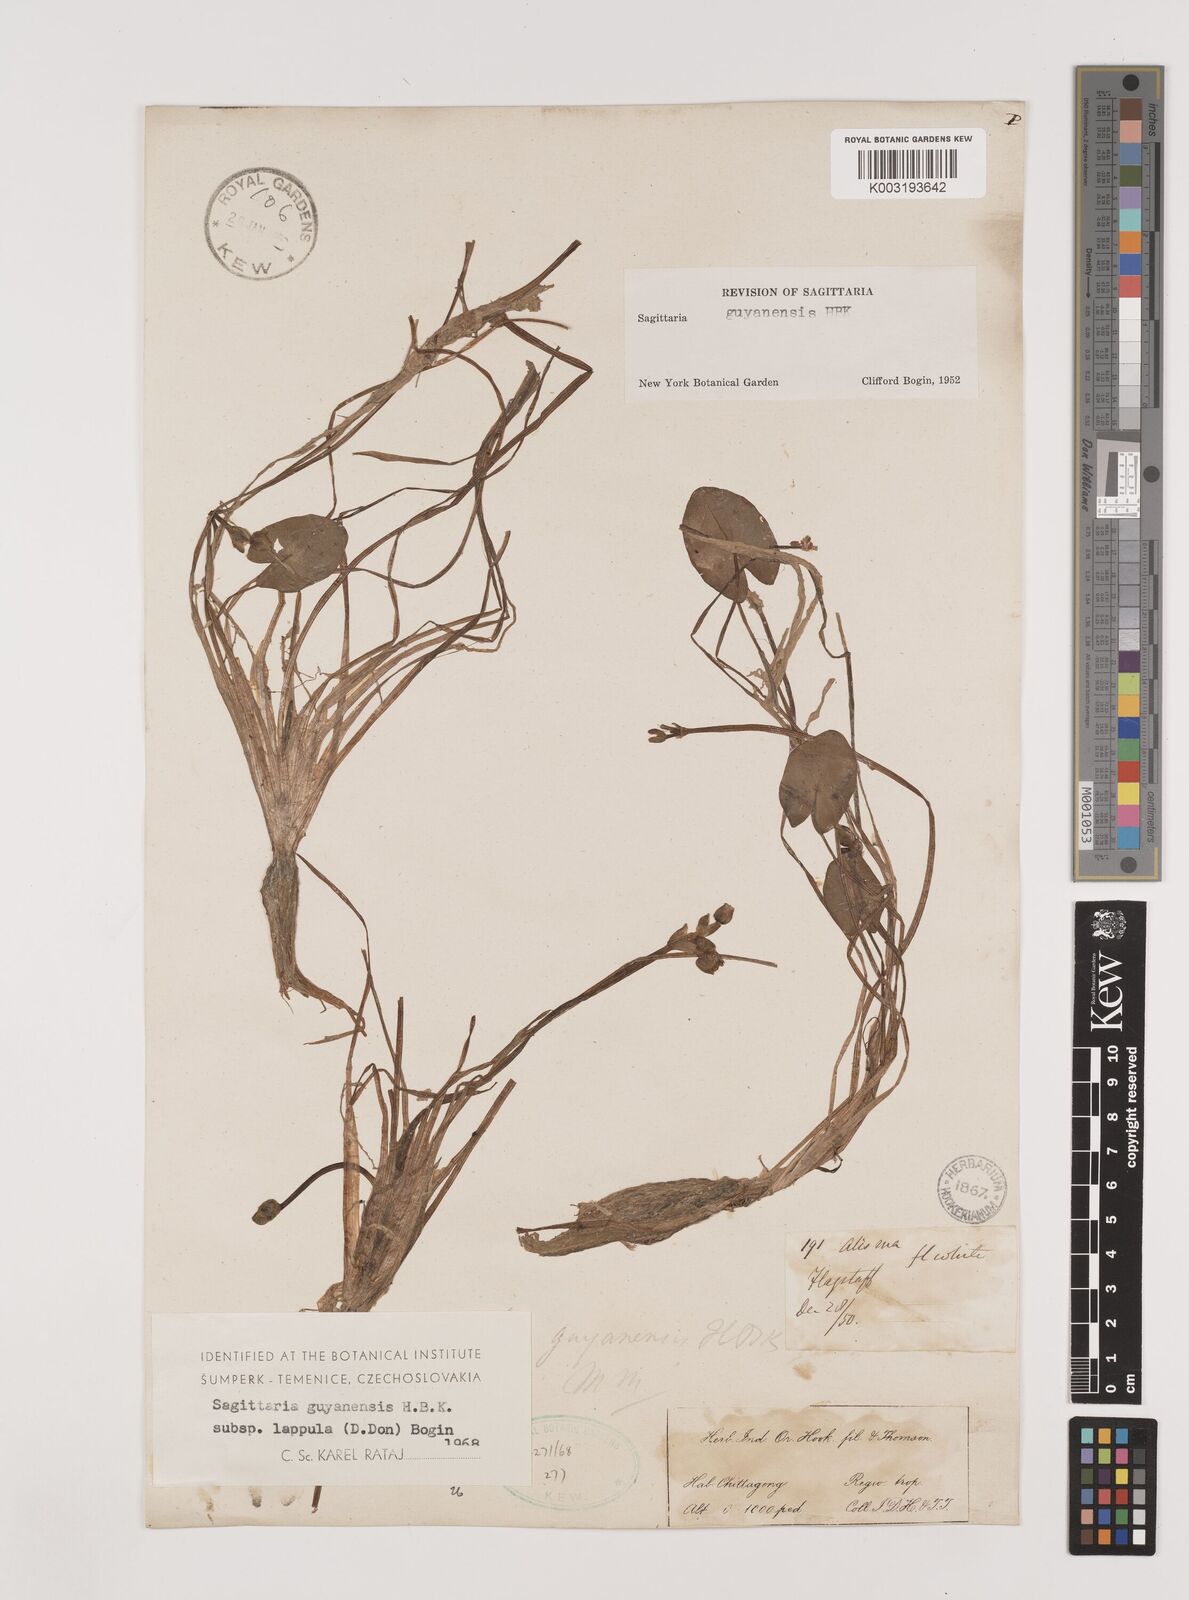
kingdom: Plantae
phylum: Tracheophyta
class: Liliopsida
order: Alismatales
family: Alismataceae
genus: Sagittaria
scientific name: Sagittaria guayanensis
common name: Guyanese arrowhead
